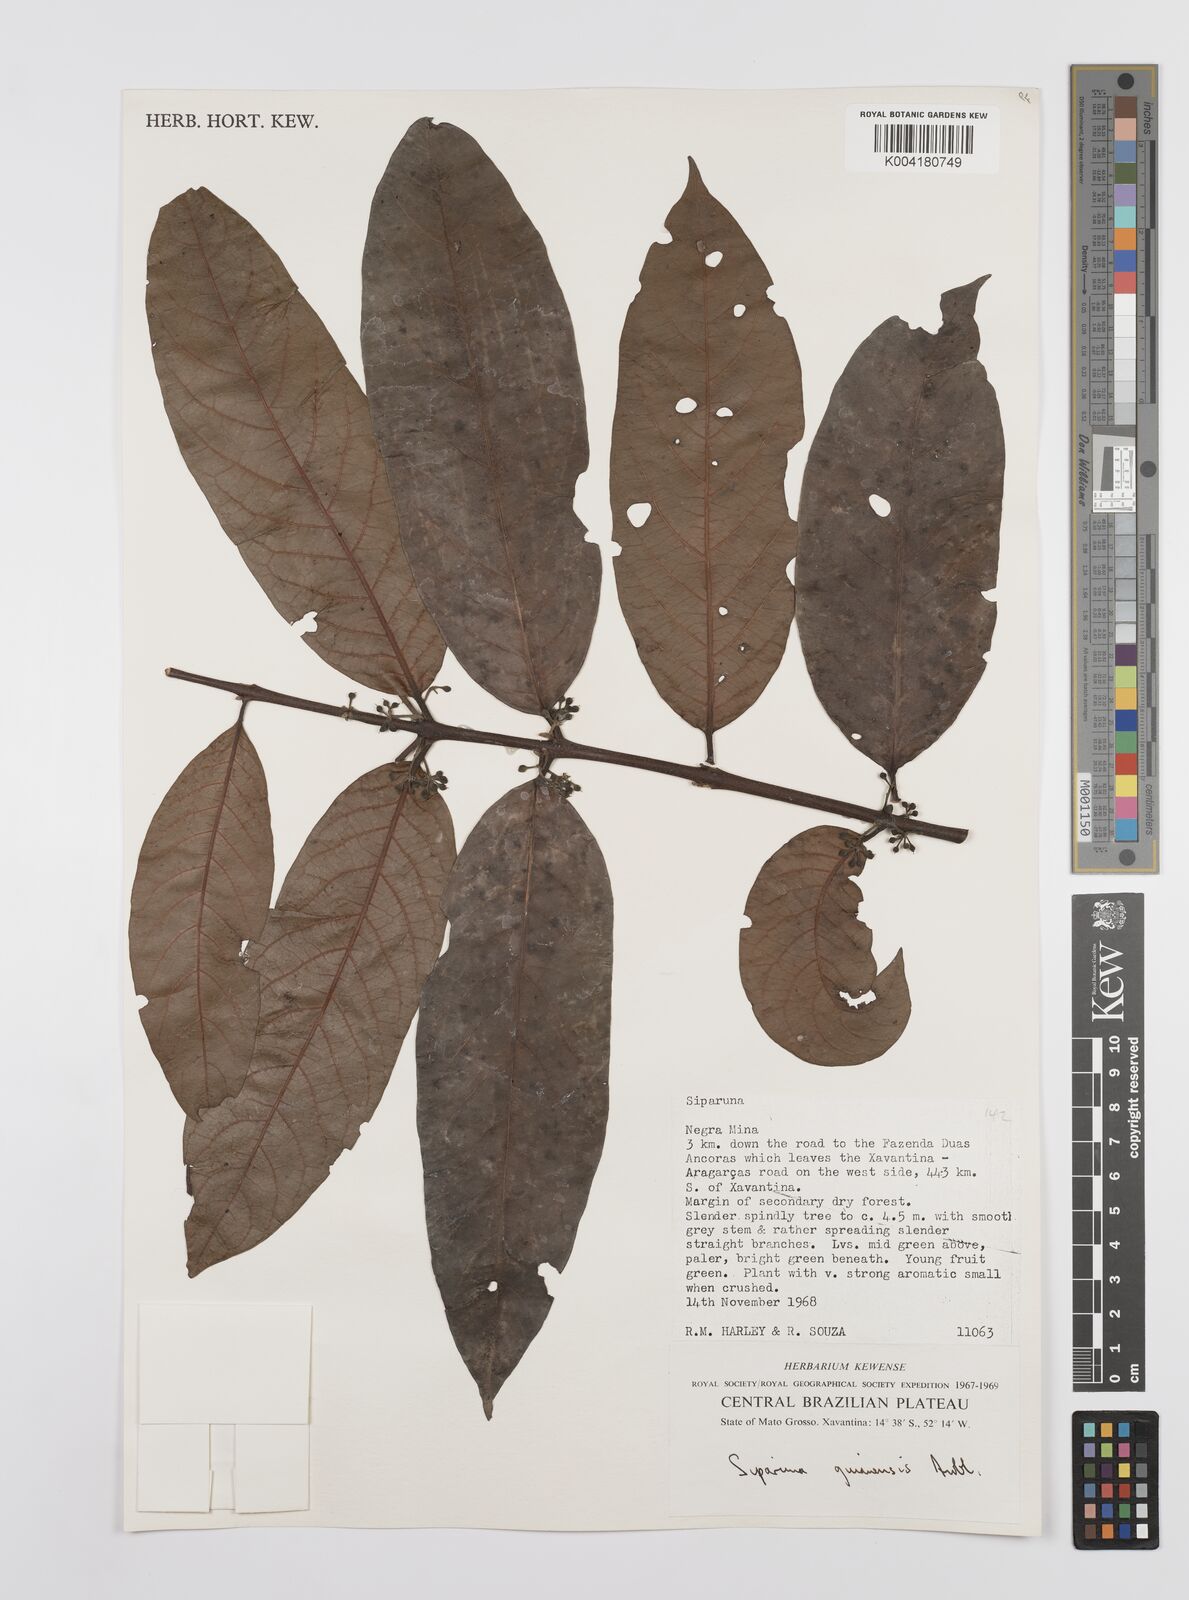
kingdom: Plantae
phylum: Tracheophyta
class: Magnoliopsida
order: Laurales
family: Siparunaceae
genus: Siparuna
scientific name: Siparuna guianensis
